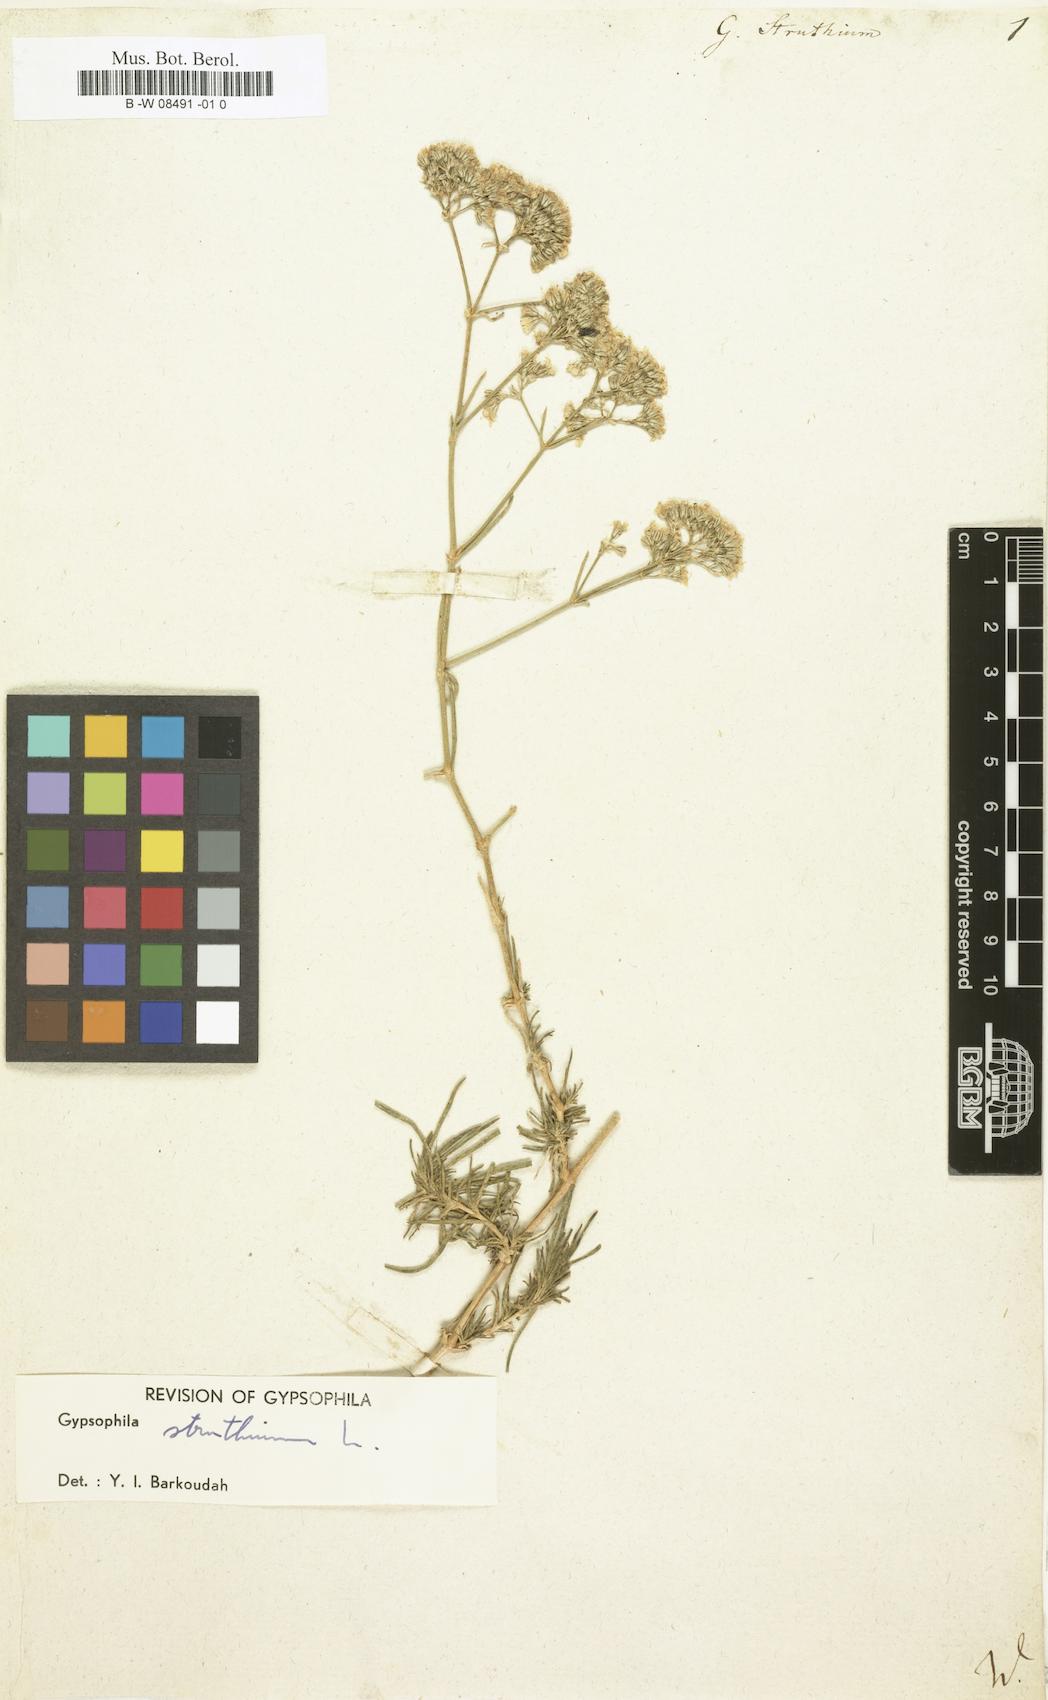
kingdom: Plantae
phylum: Tracheophyta
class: Magnoliopsida
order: Caryophyllales
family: Caryophyllaceae
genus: Gypsophila
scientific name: Gypsophila struthium
